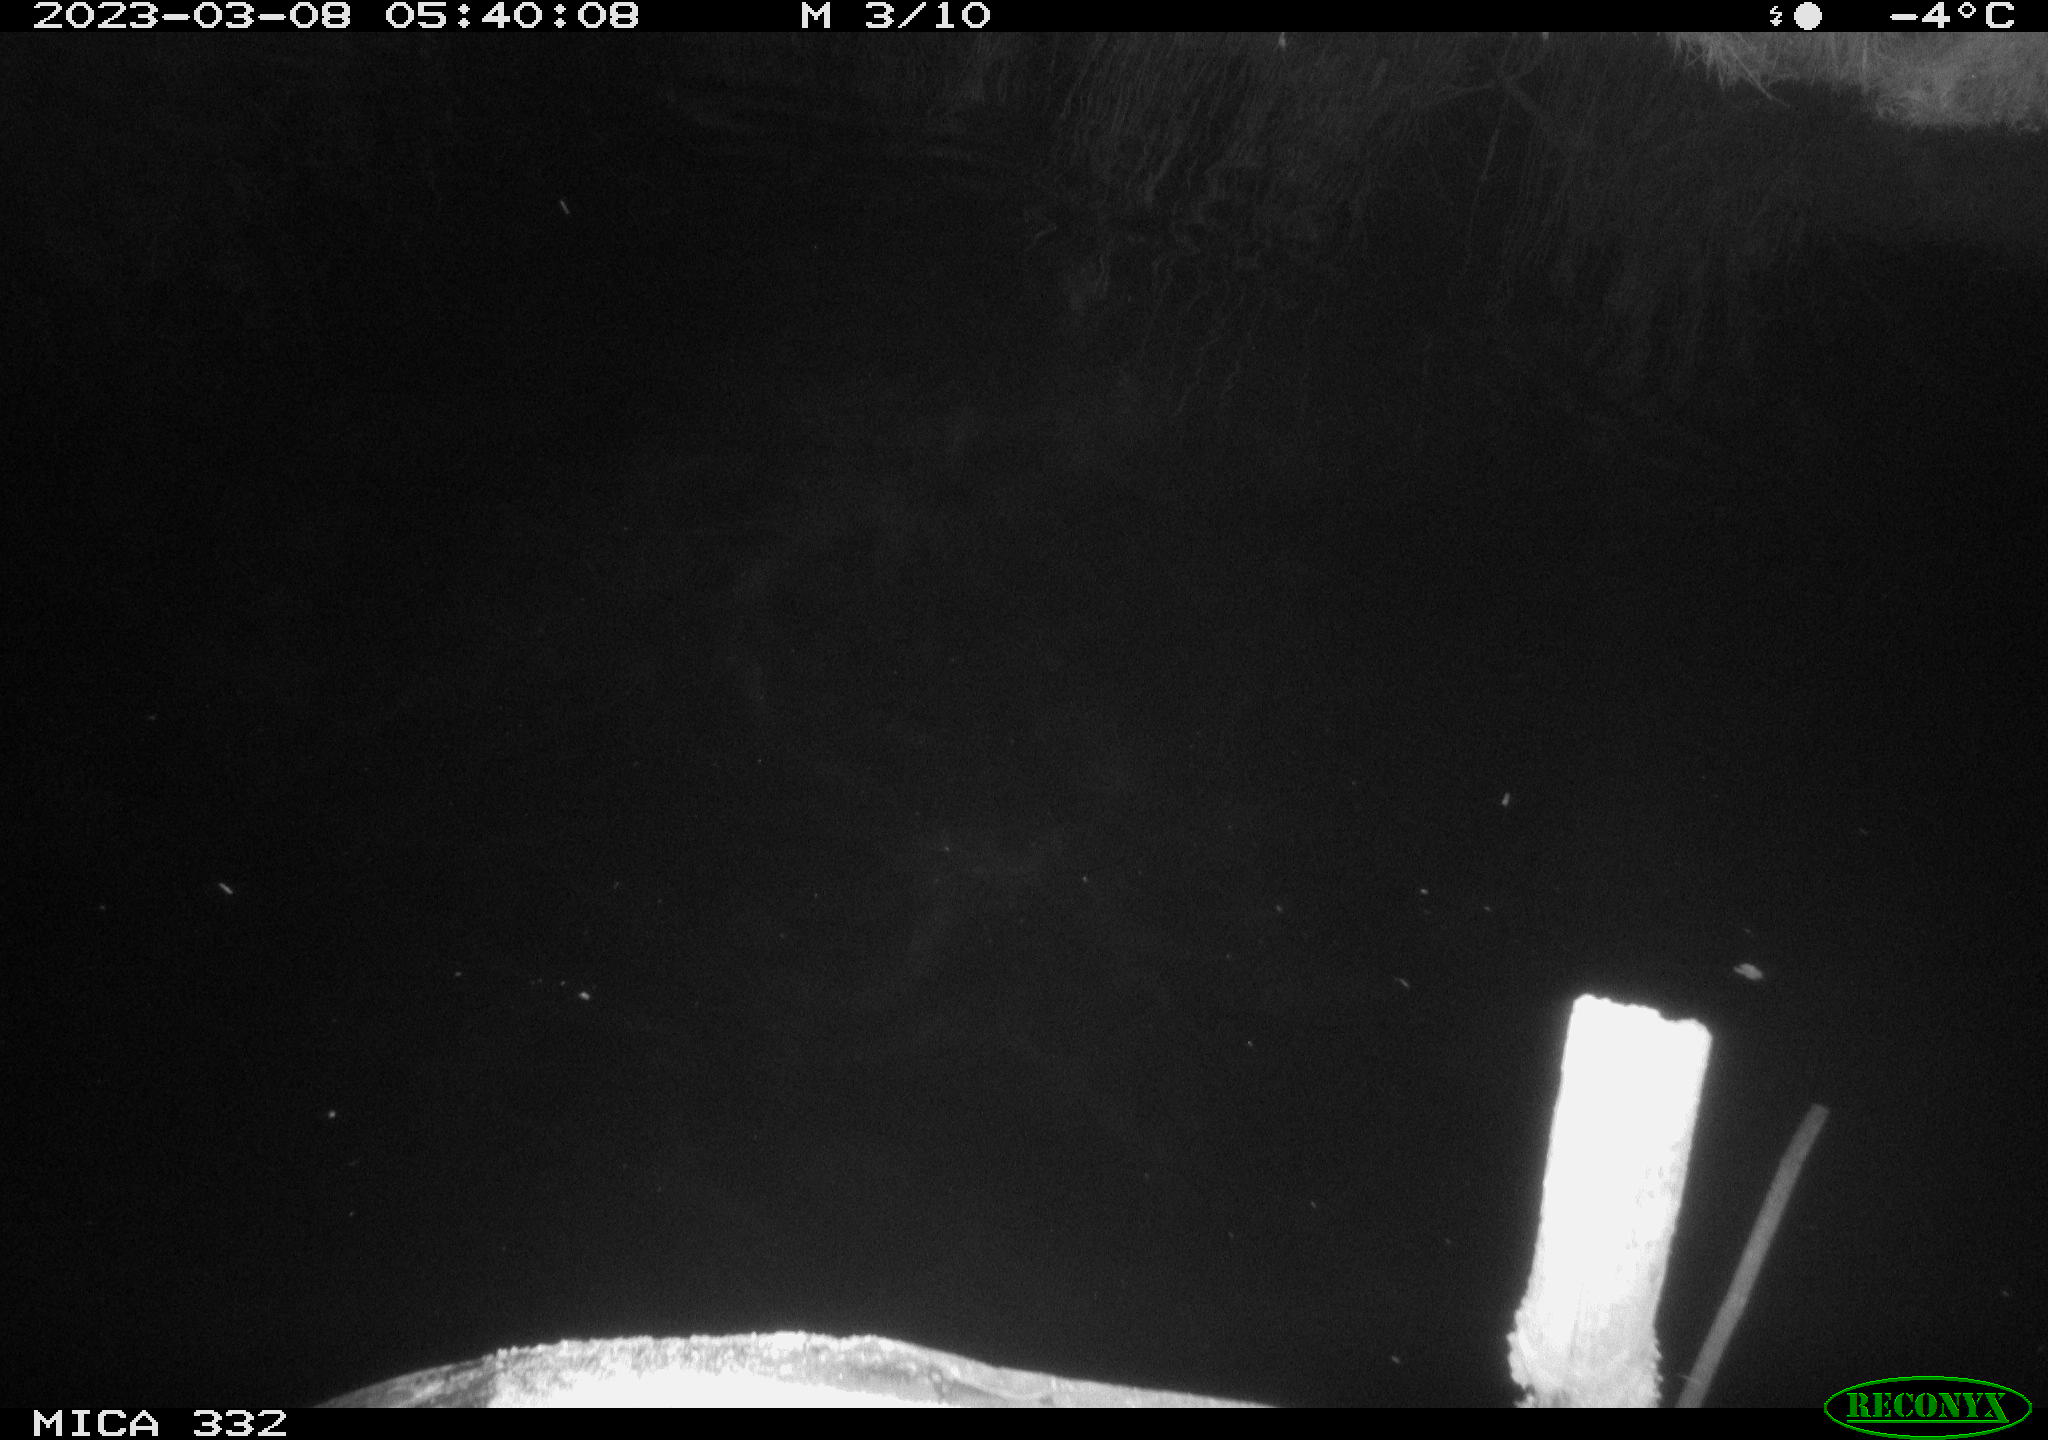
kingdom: Animalia
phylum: Chordata
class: Aves
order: Anseriformes
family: Anatidae
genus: Anas
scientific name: Anas
